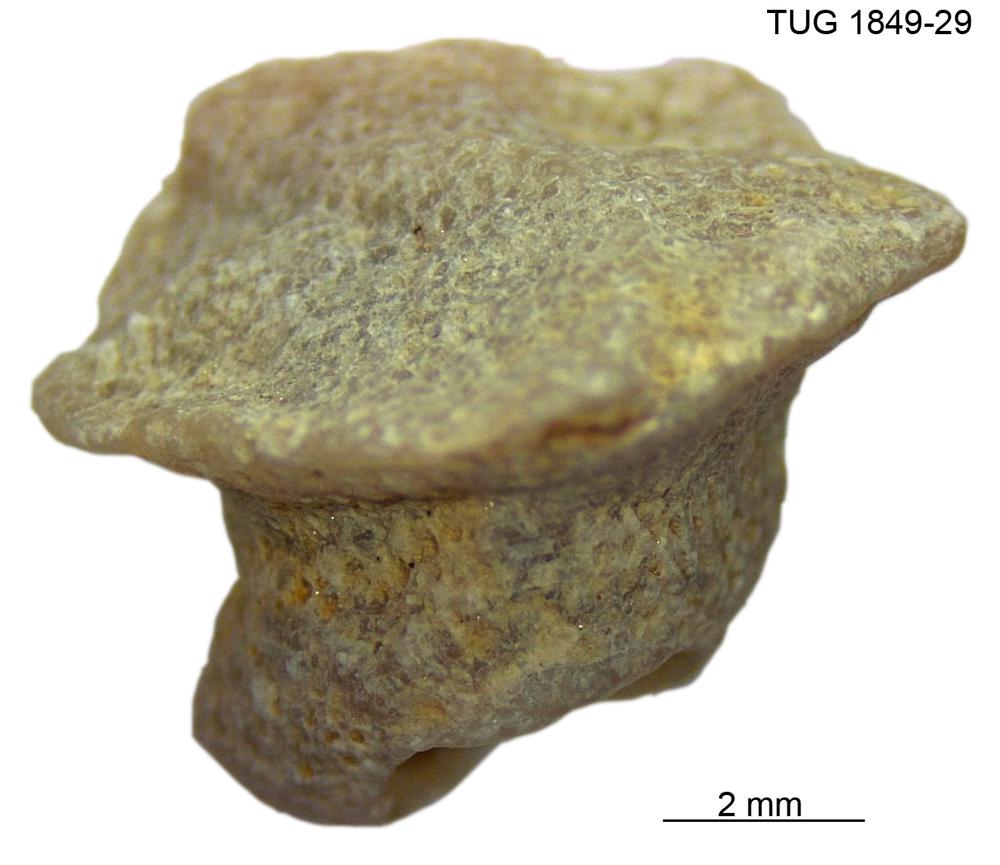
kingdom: Animalia
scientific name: Animalia
